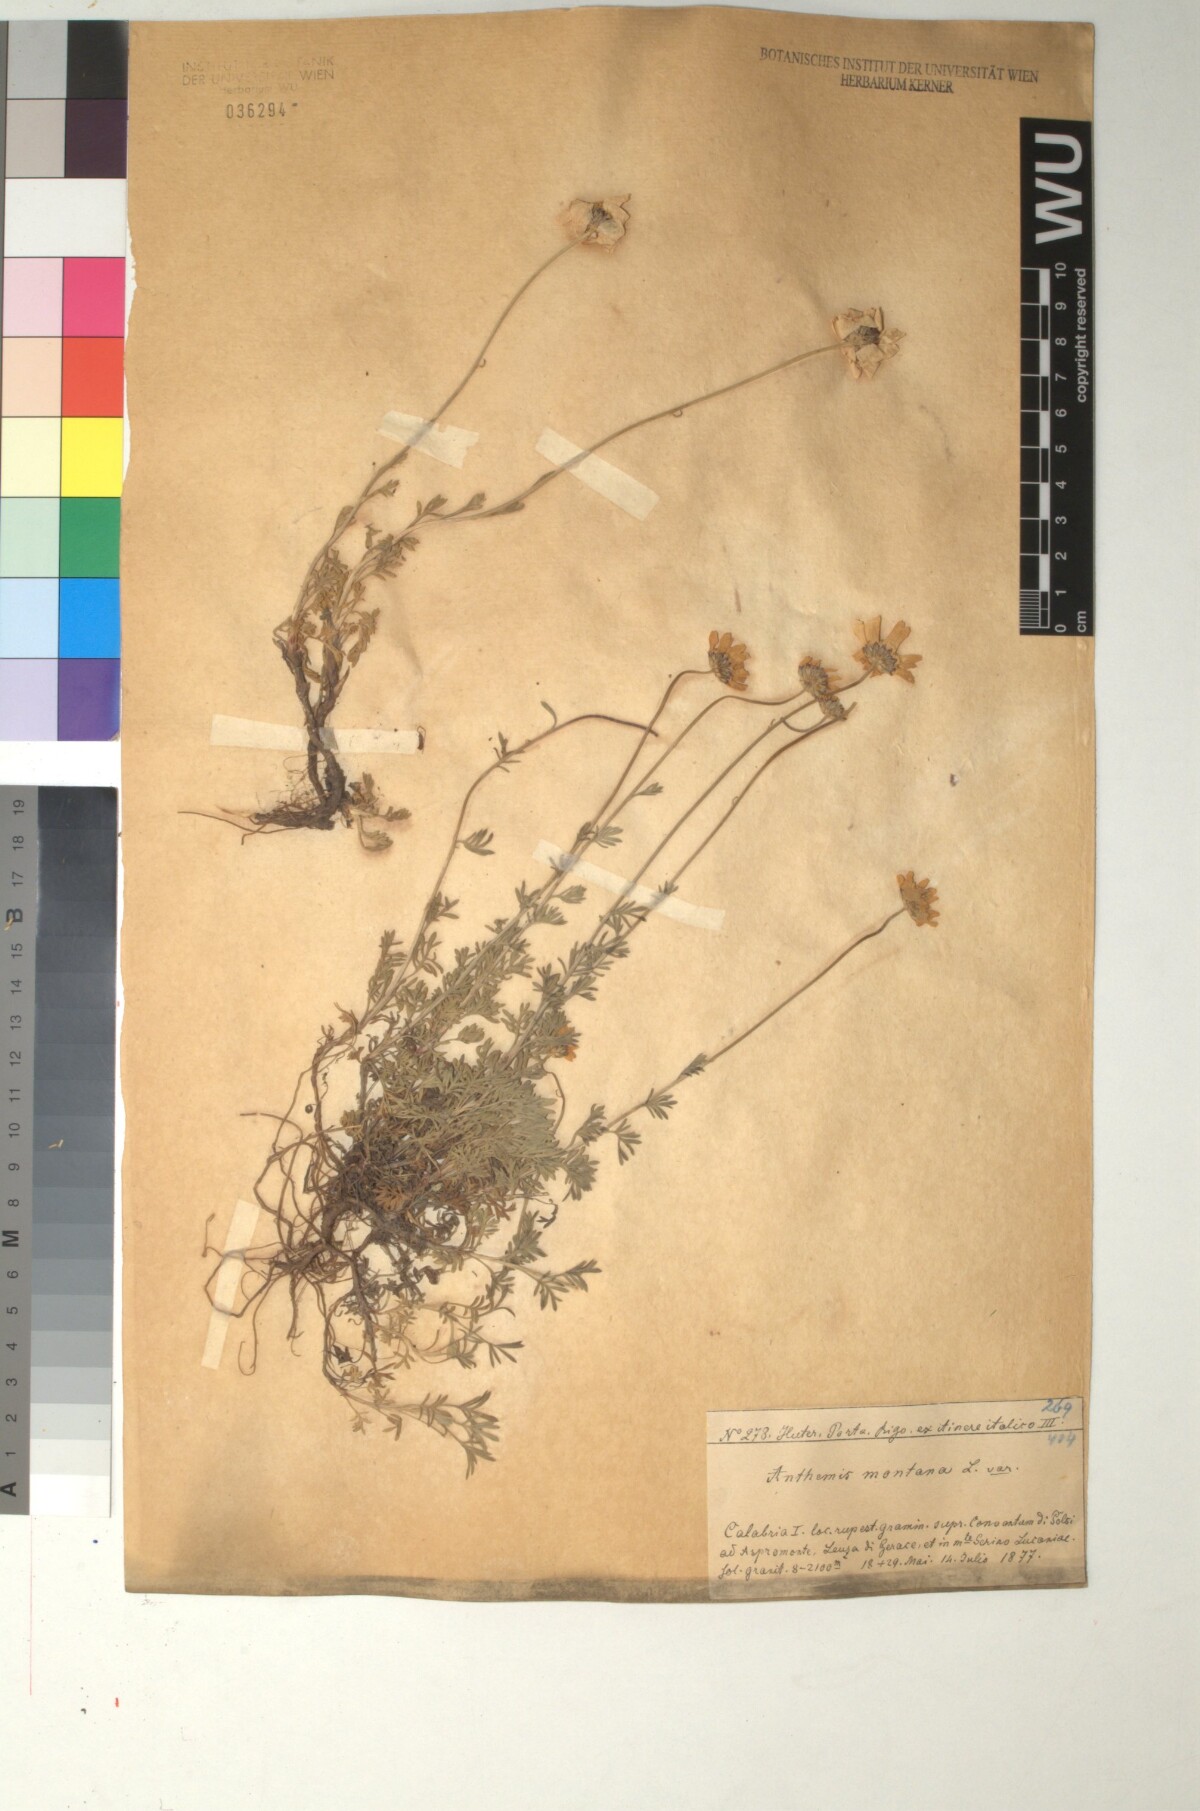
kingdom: Plantae
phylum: Tracheophyta
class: Magnoliopsida
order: Asterales
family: Asteraceae
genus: Anthemis
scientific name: Anthemis cretica
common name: Mountain dog-daisy
